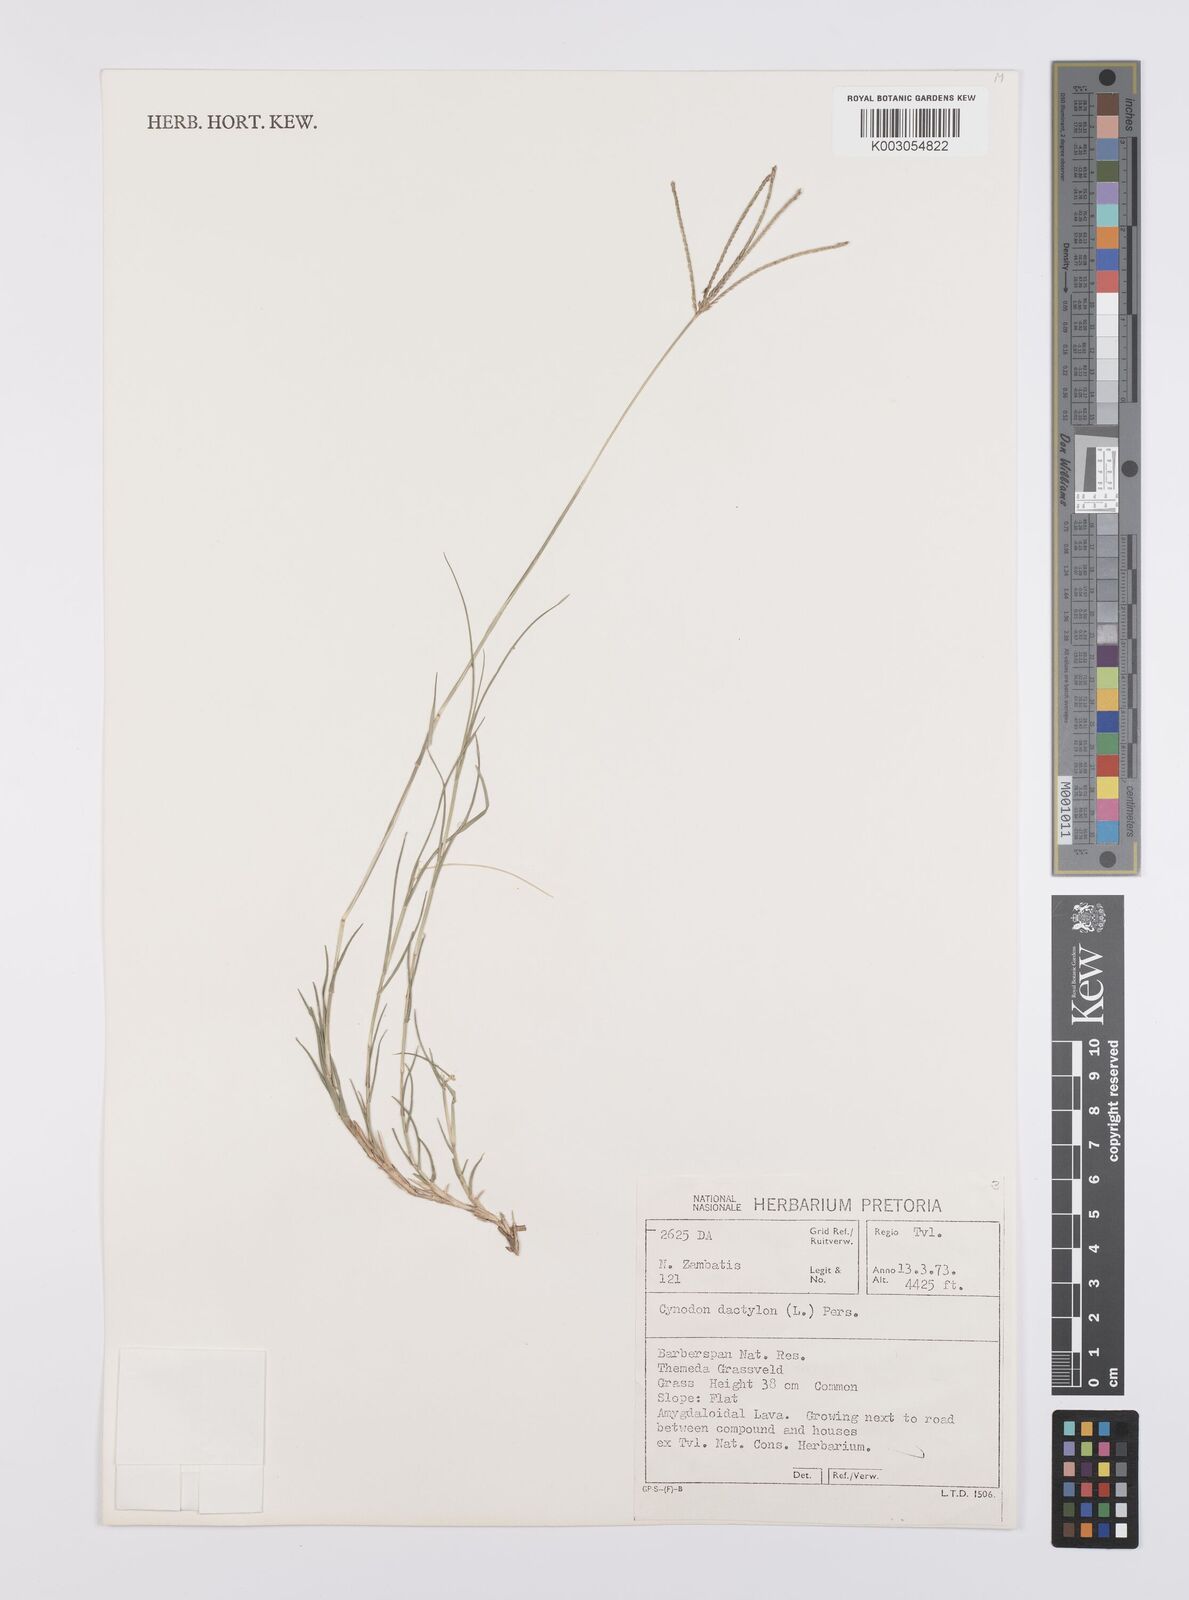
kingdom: Plantae
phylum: Tracheophyta
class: Liliopsida
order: Poales
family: Poaceae
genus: Cynodon
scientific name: Cynodon dactylon
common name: Bermuda grass
